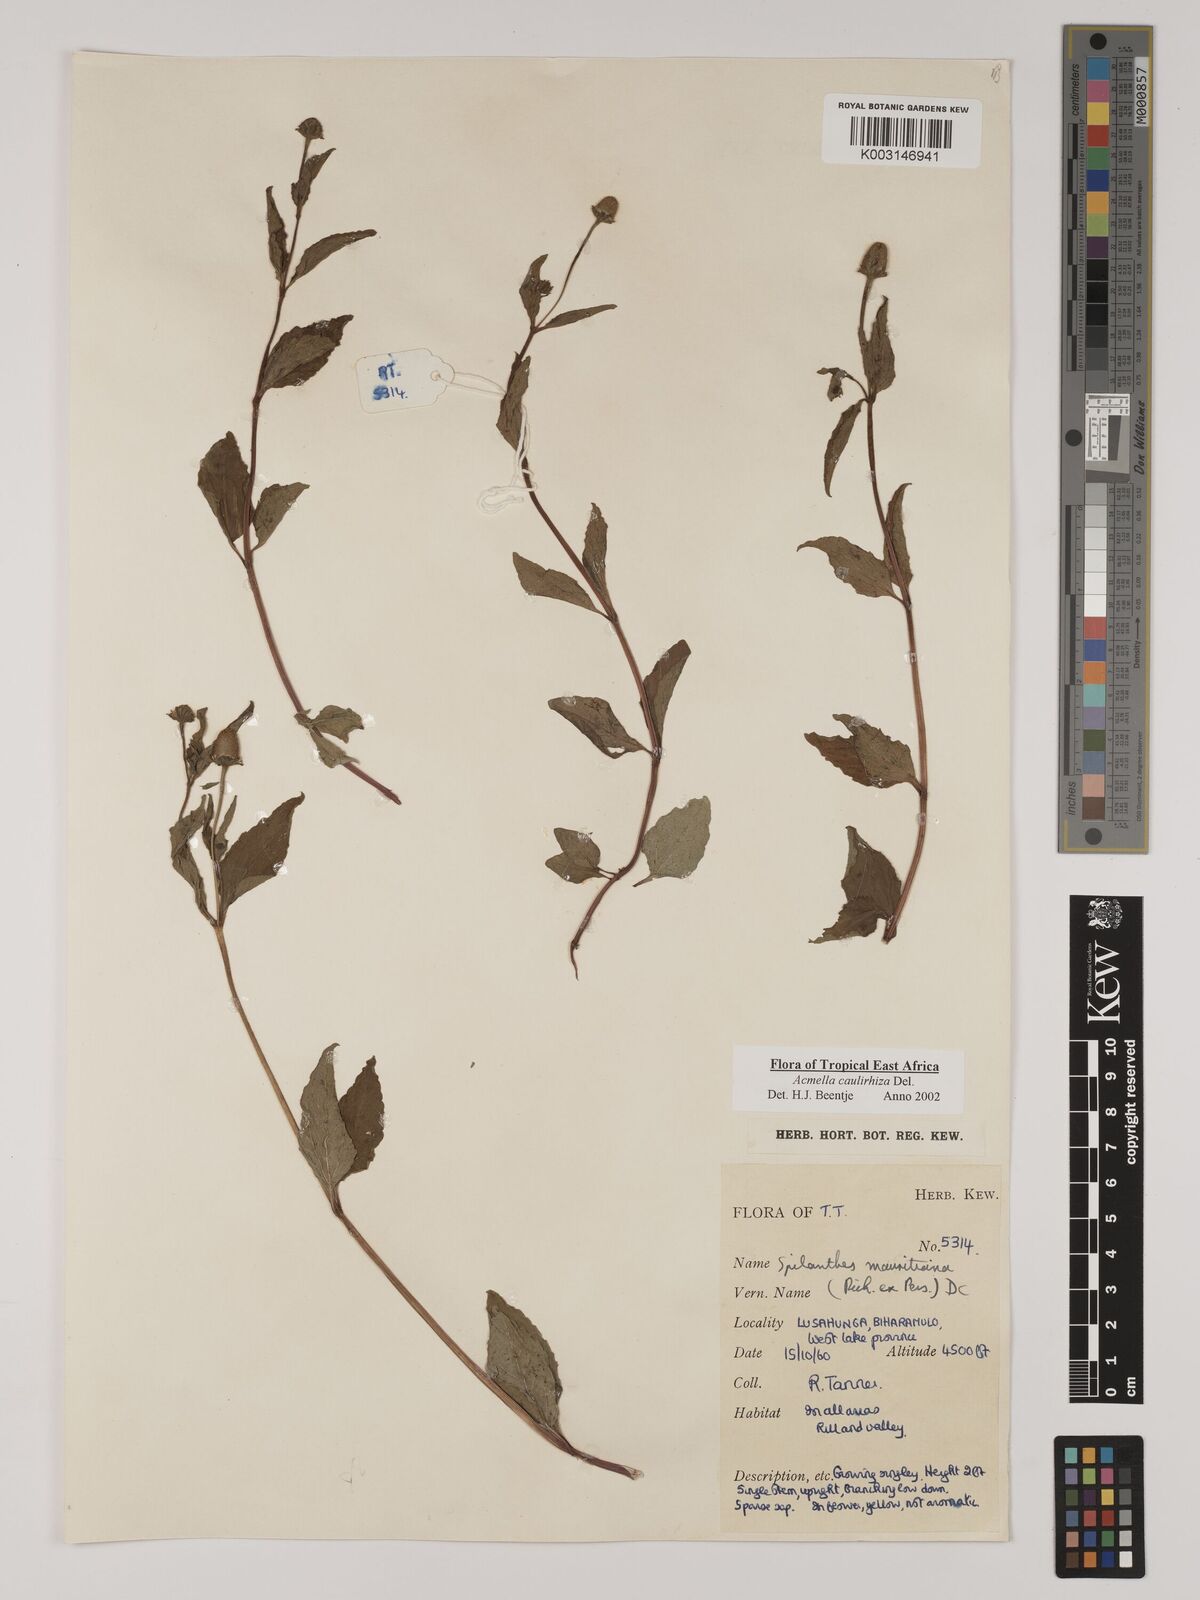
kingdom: Plantae
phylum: Tracheophyta
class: Magnoliopsida
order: Asterales
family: Asteraceae
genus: Acmella
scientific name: Acmella caulirhiza
